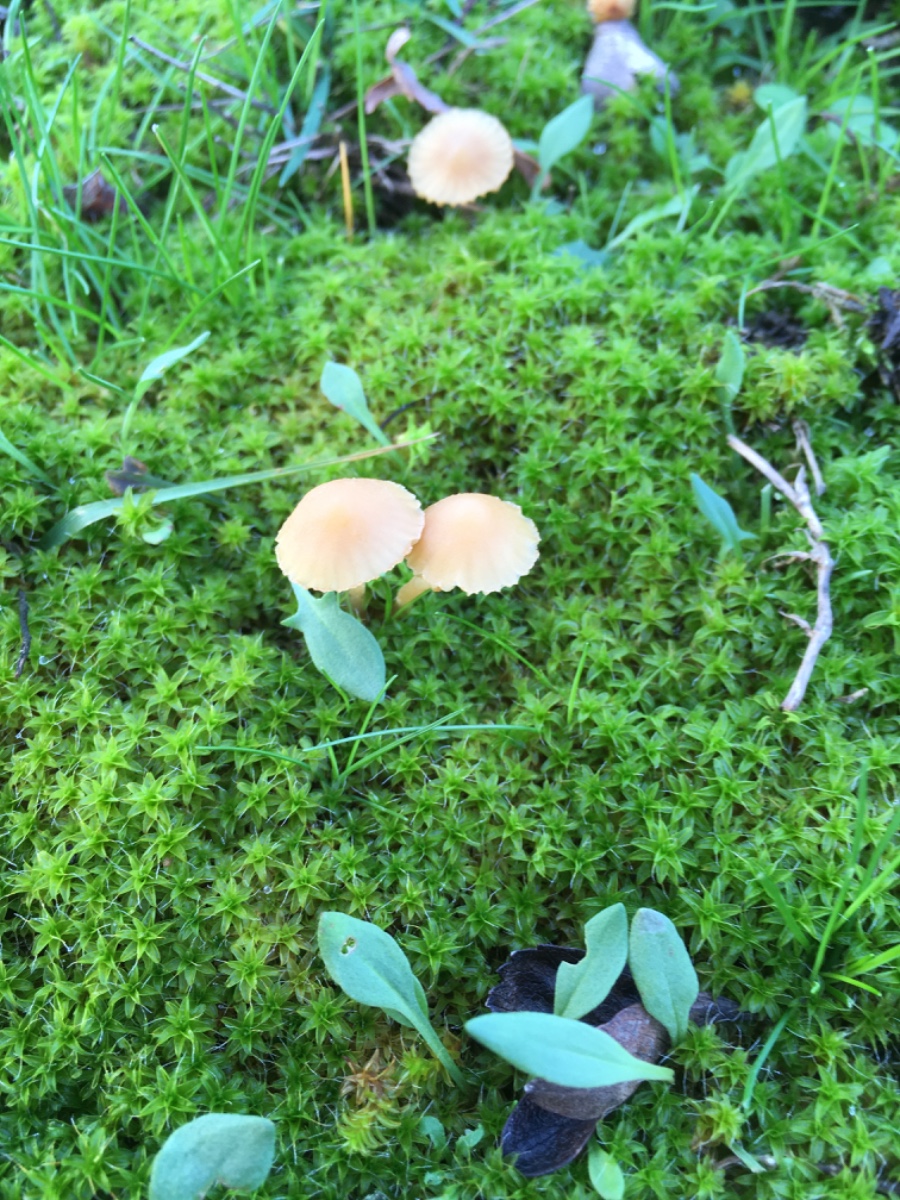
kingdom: Fungi
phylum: Basidiomycota
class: Agaricomycetes
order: Agaricales
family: Hymenogastraceae
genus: Galerina
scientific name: Galerina
